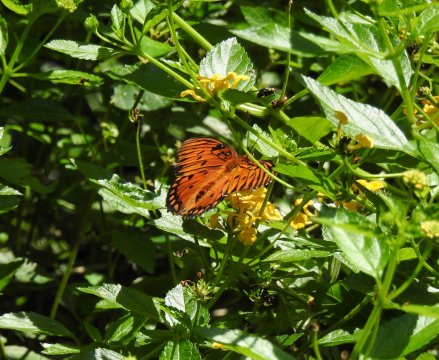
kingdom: Animalia
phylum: Arthropoda
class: Insecta
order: Lepidoptera
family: Nymphalidae
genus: Dione
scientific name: Dione vanillae
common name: Gulf Fritillary
